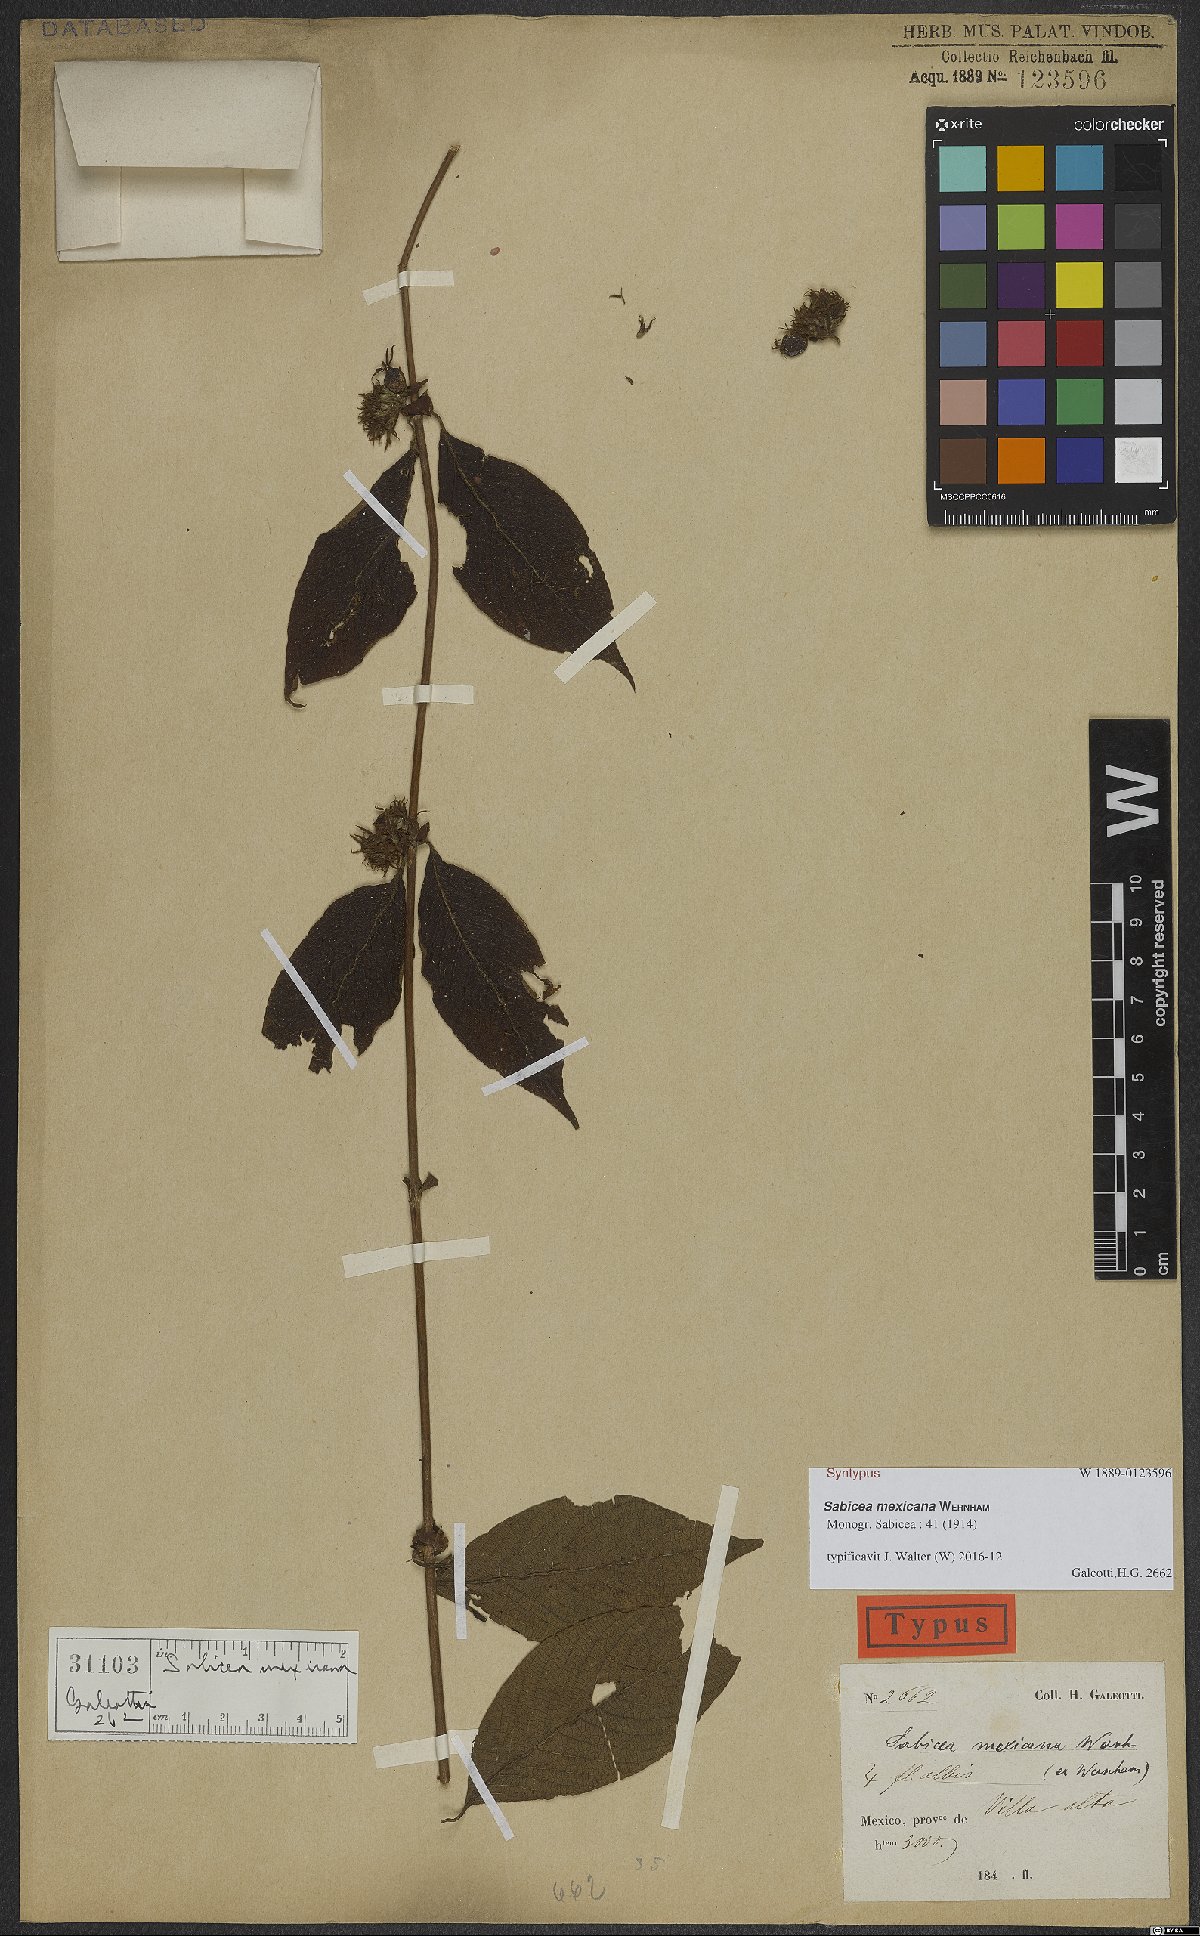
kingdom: Plantae
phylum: Tracheophyta
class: Magnoliopsida
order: Gentianales
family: Rubiaceae
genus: Sabicea
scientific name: Sabicea mexicana
